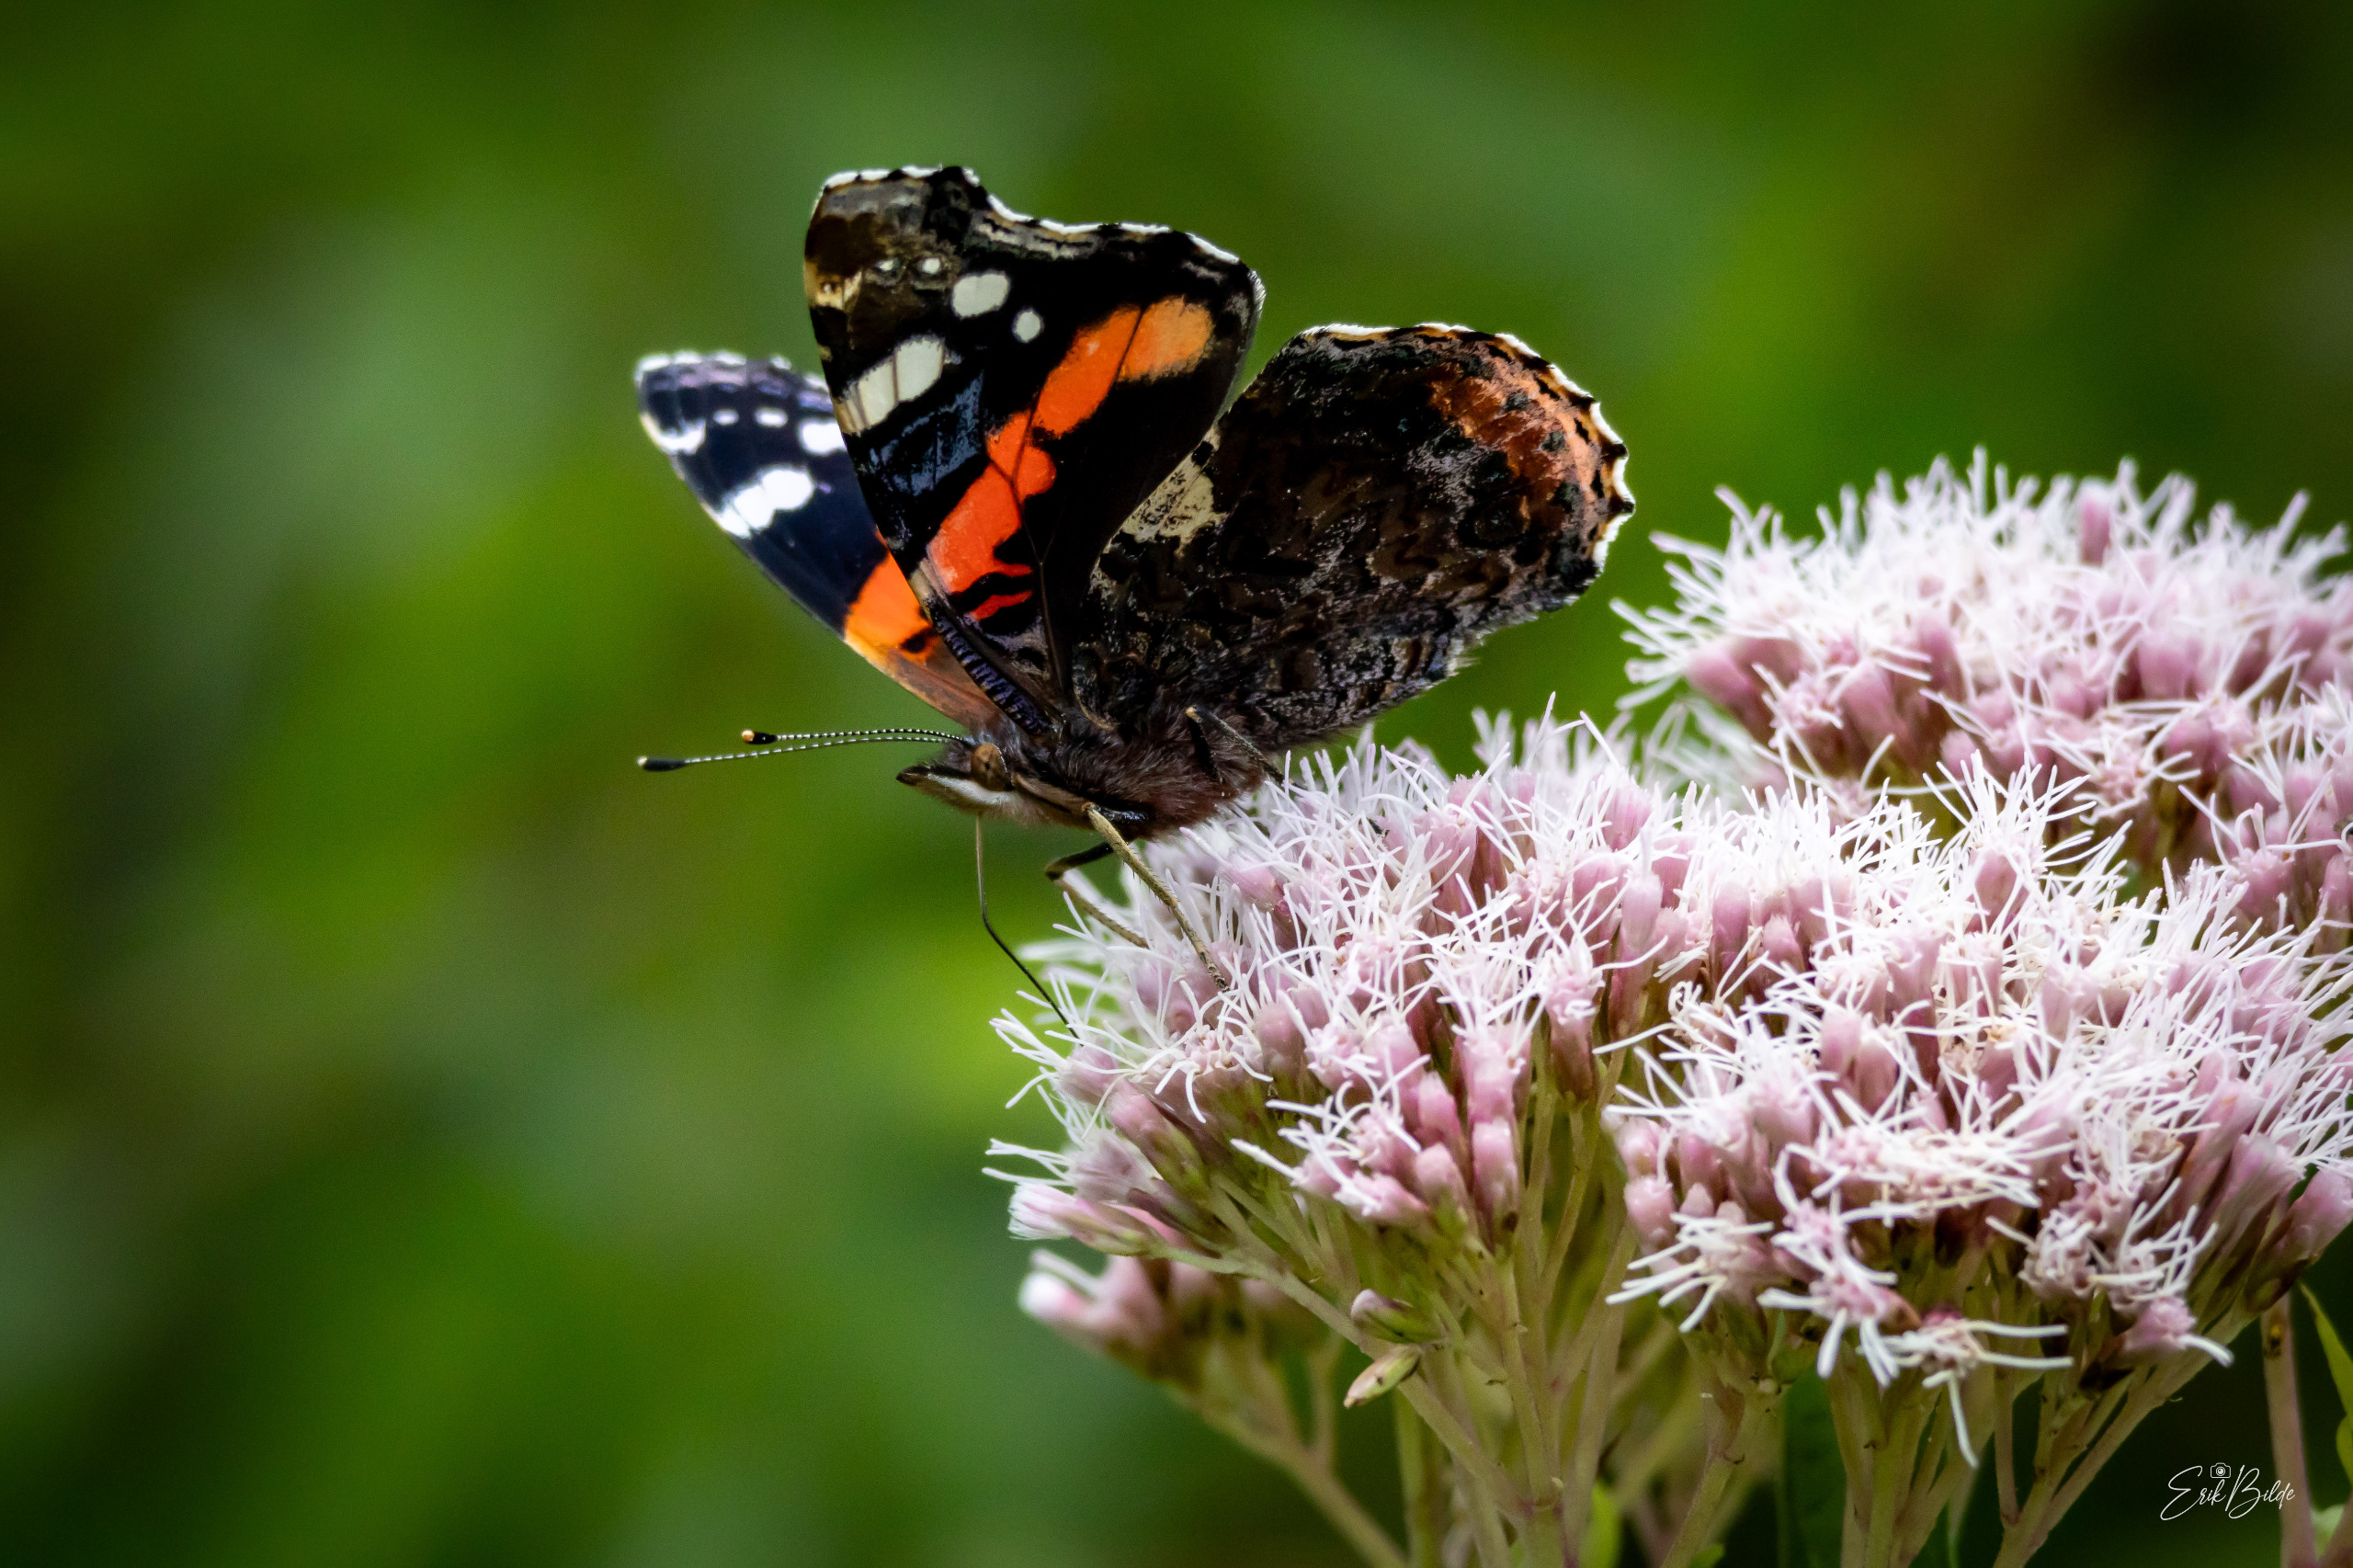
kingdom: Animalia
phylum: Arthropoda
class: Insecta
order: Lepidoptera
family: Nymphalidae
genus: Vanessa
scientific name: Vanessa atalanta
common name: Admiral
